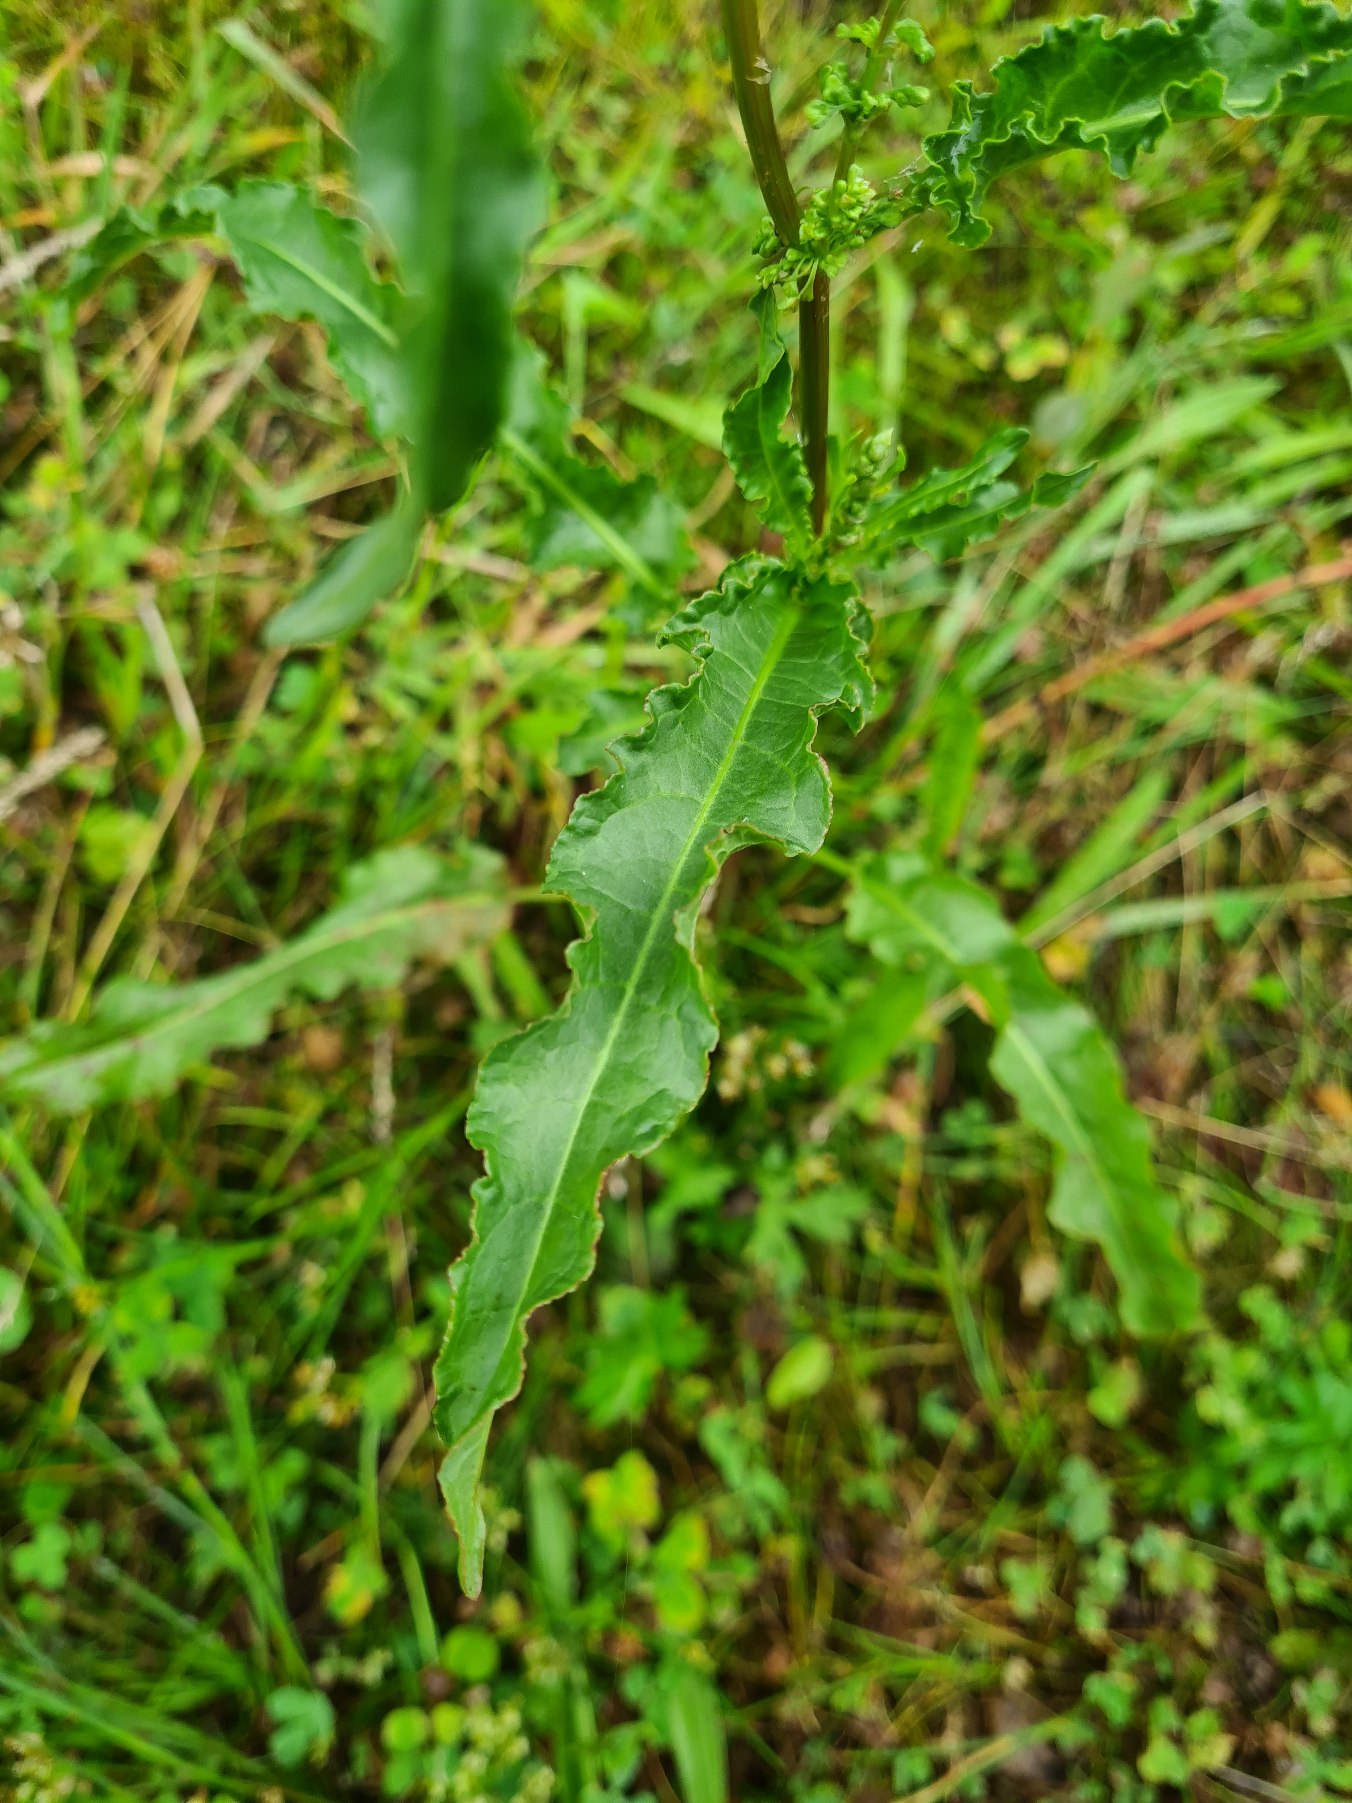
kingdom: Plantae
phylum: Tracheophyta
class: Magnoliopsida
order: Caryophyllales
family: Polygonaceae
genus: Rumex
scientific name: Rumex crispus
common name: Kruset skræppe
